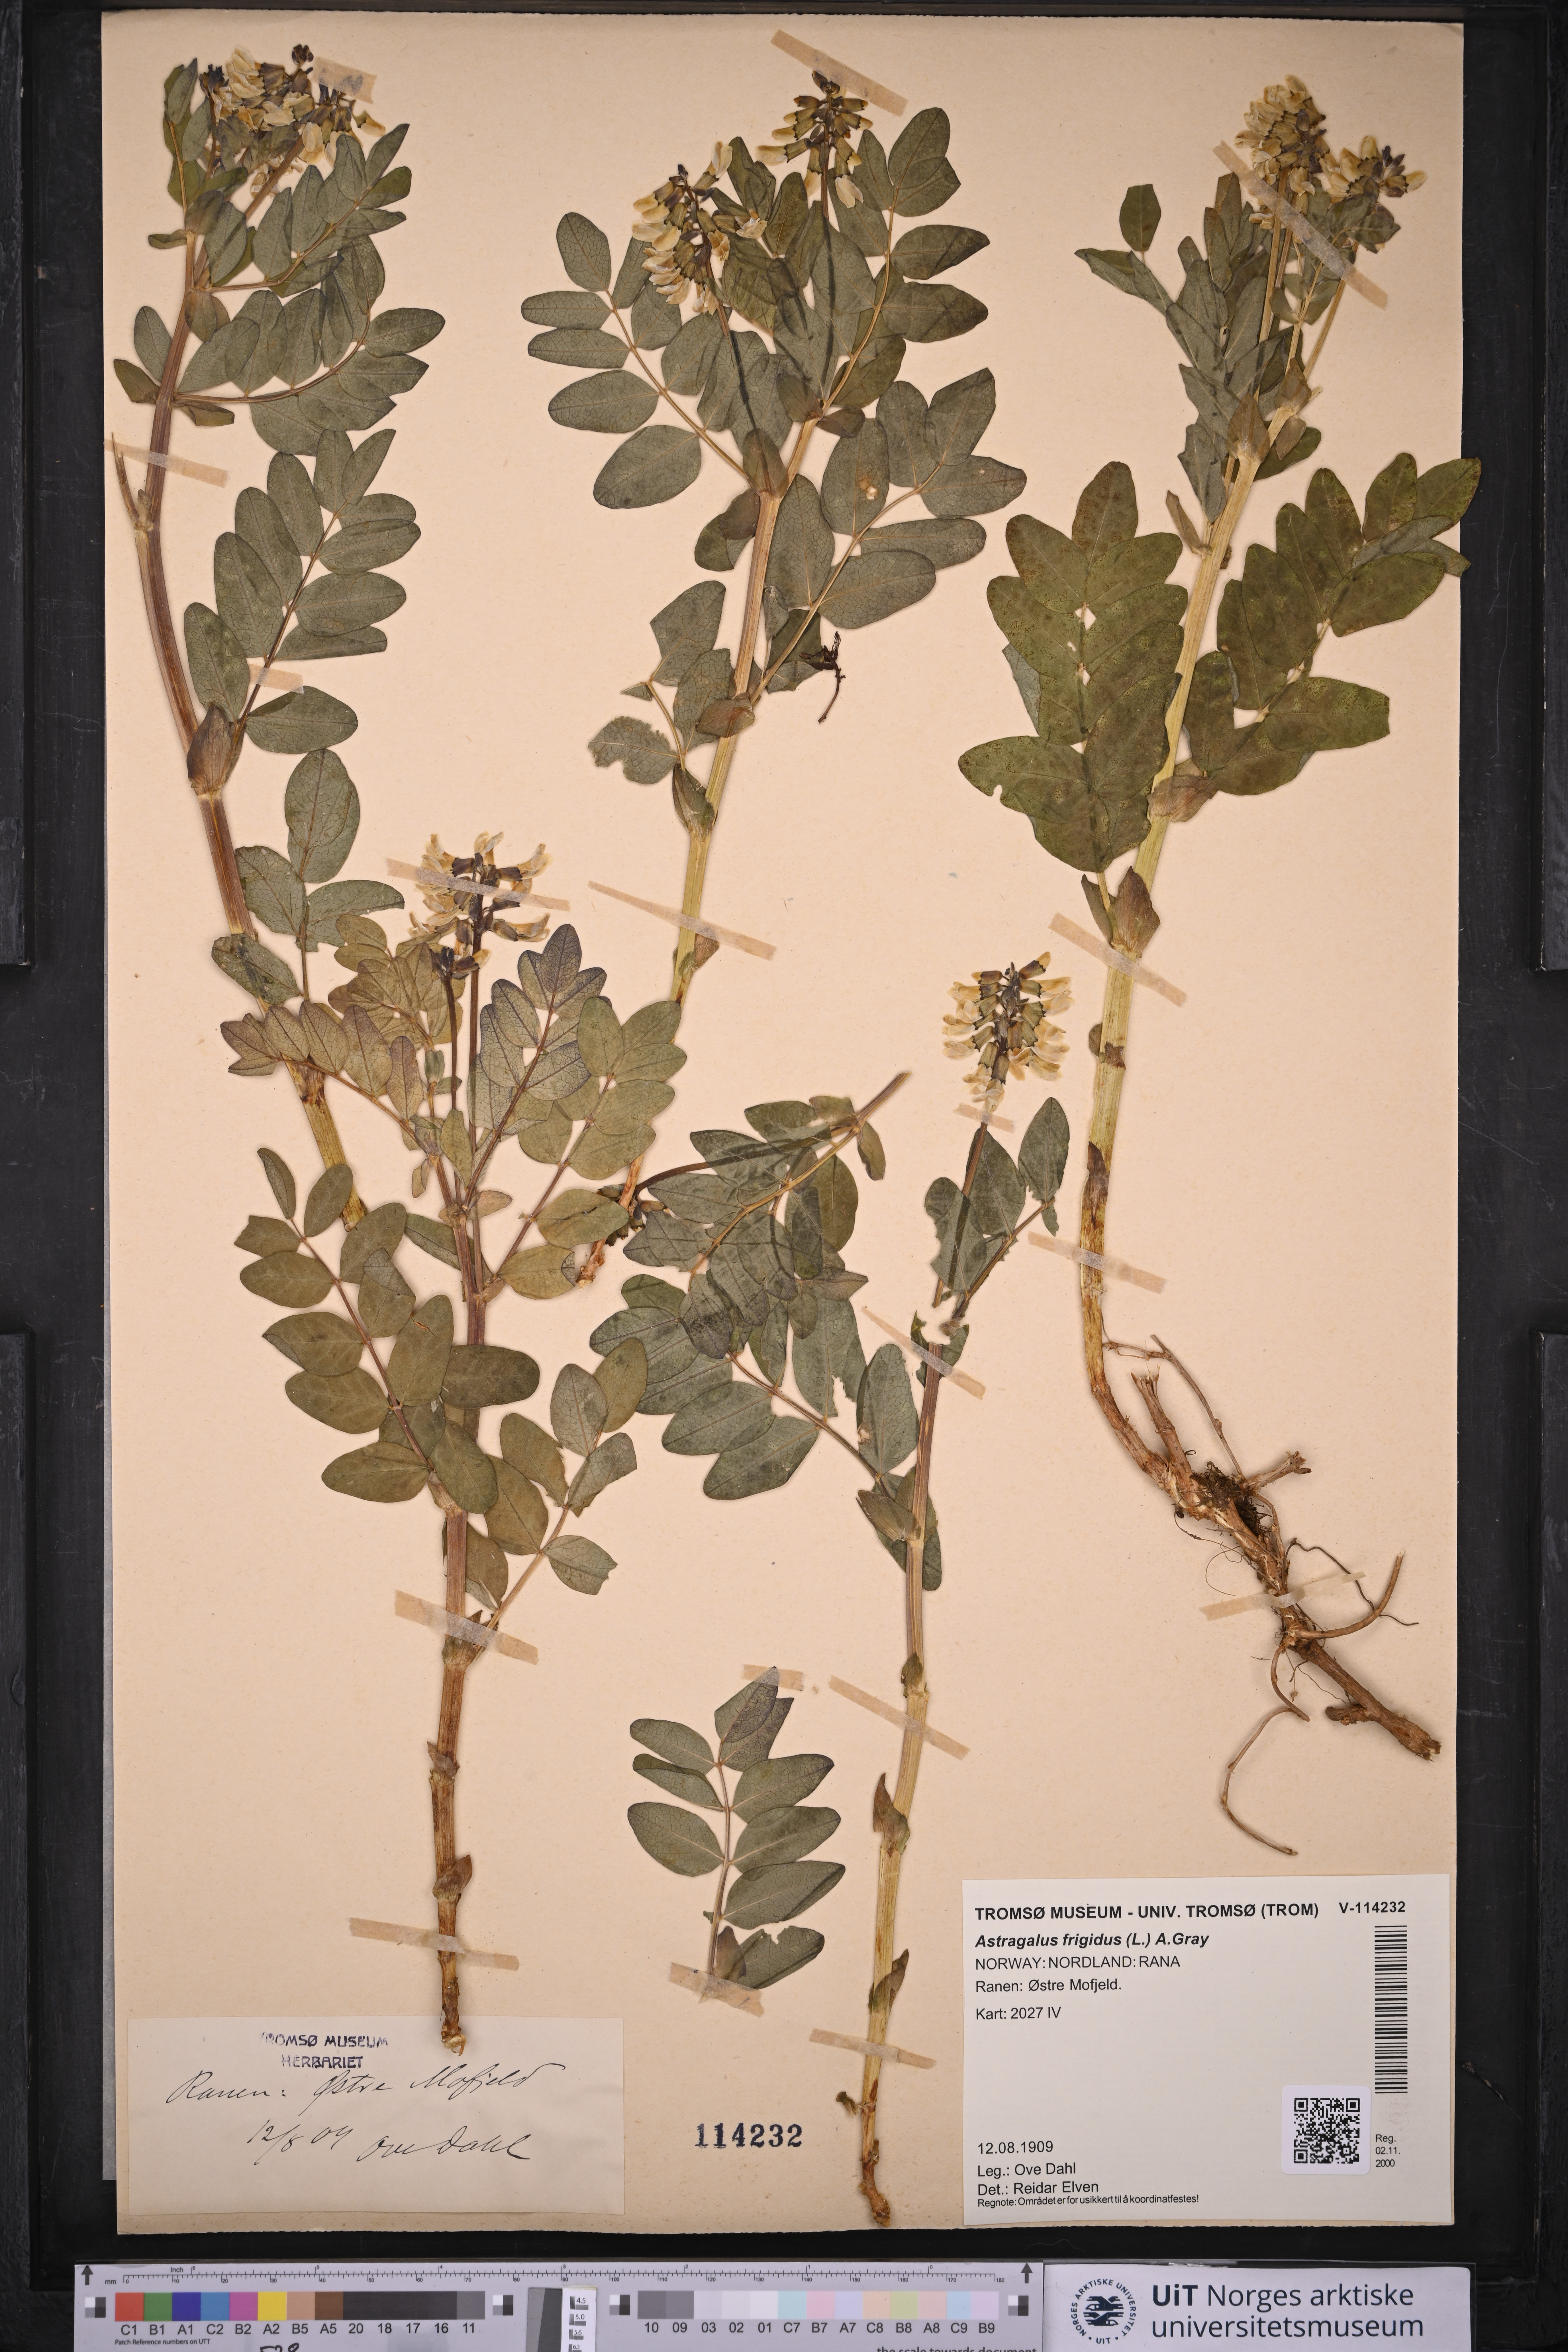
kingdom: Plantae
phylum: Tracheophyta
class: Magnoliopsida
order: Fabales
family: Fabaceae
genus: Astragalus
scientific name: Astragalus frigidus
